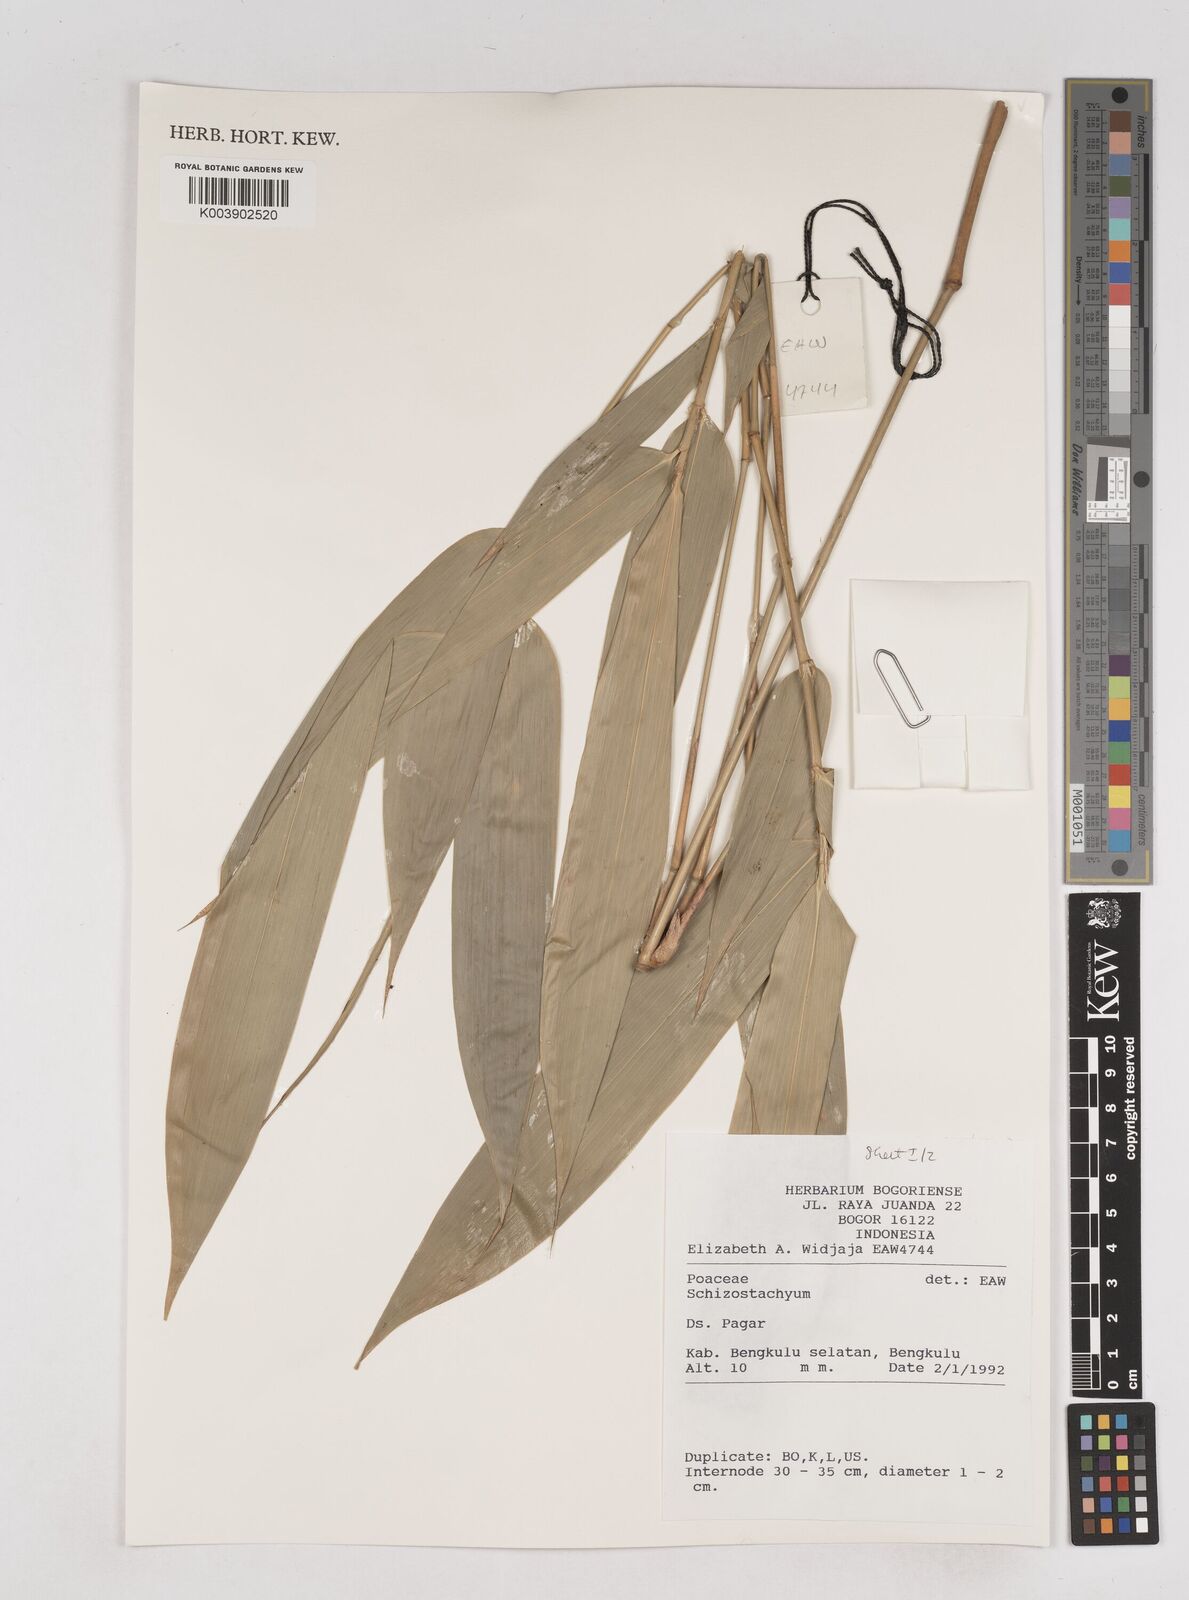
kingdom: Plantae
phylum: Tracheophyta
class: Liliopsida
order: Poales
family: Poaceae
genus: Schizostachyum
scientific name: Schizostachyum
